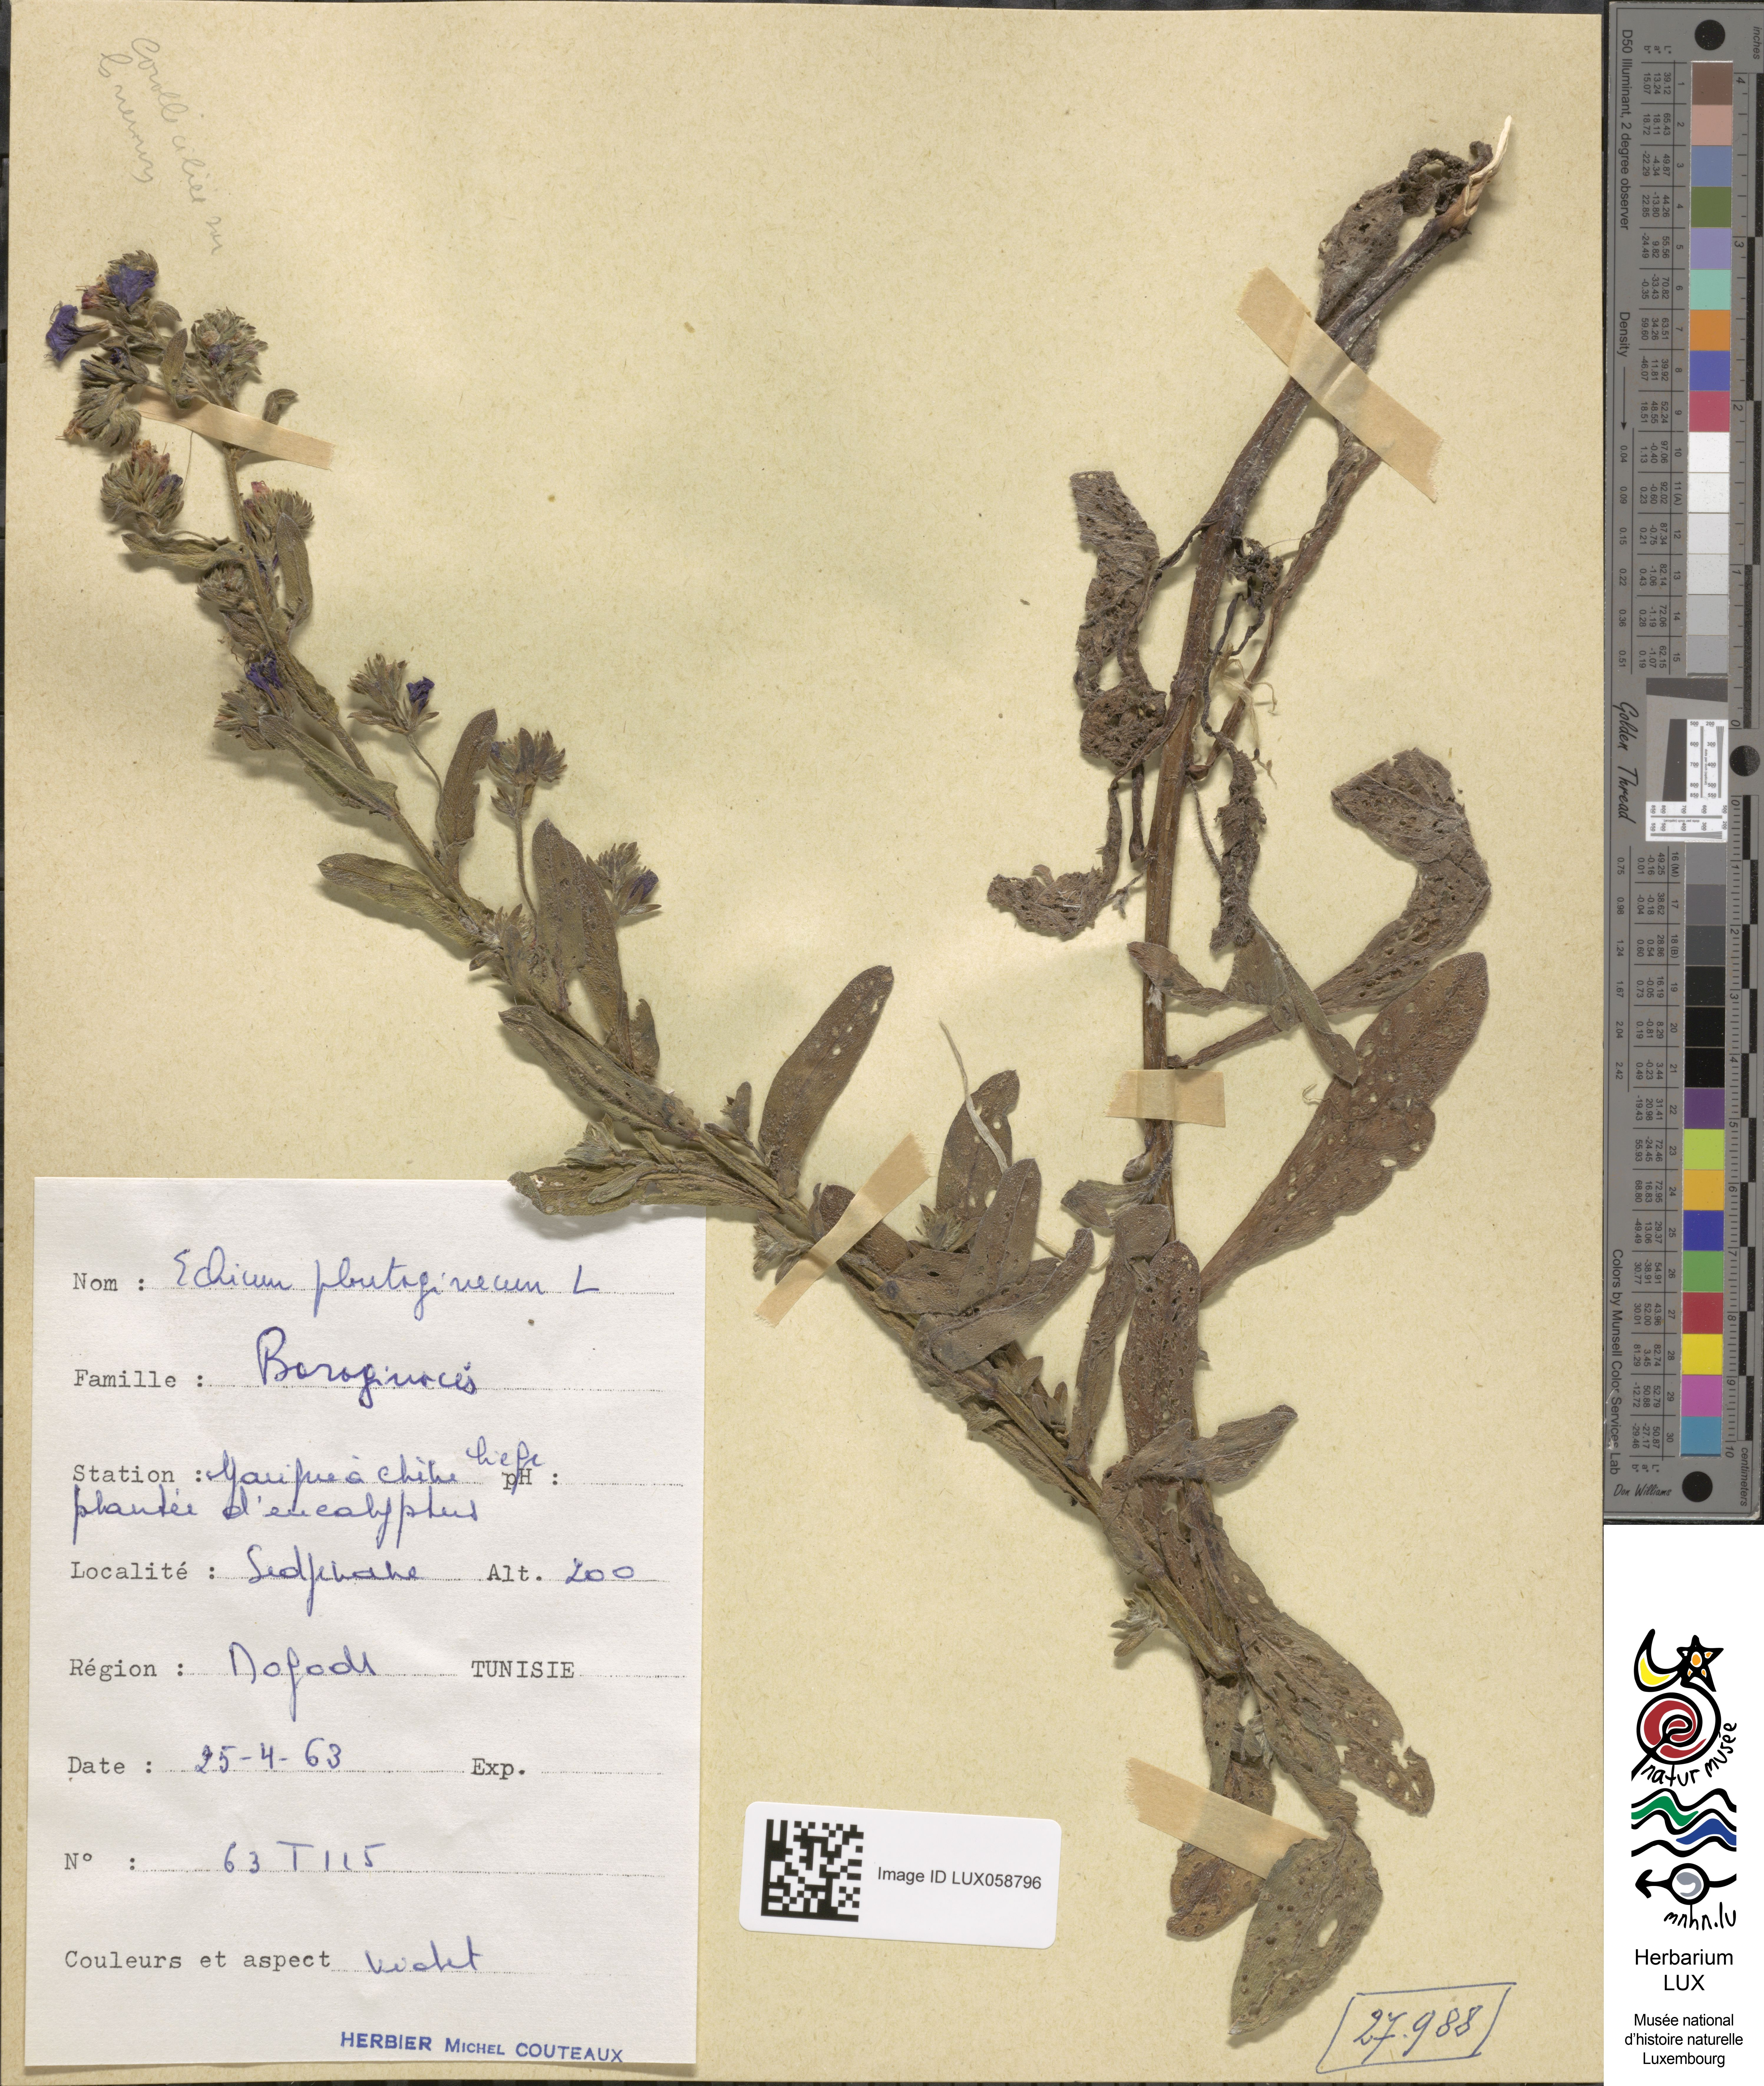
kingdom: Plantae
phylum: Tracheophyta
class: Magnoliopsida
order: Boraginales
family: Boraginaceae
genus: Echium
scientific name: Echium plantagineum
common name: Purple viper's-bugloss
